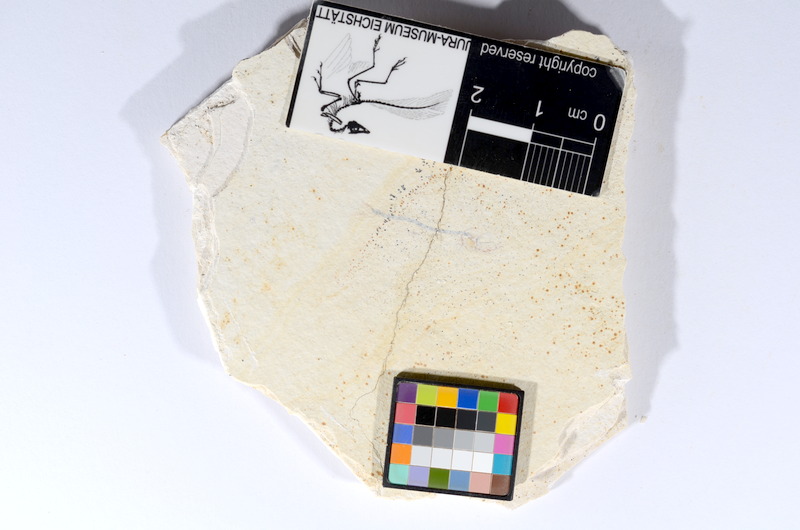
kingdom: Animalia
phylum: Chordata
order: Salmoniformes
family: Orthogonikleithridae
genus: Orthogonikleithrus
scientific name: Orthogonikleithrus hoelli
